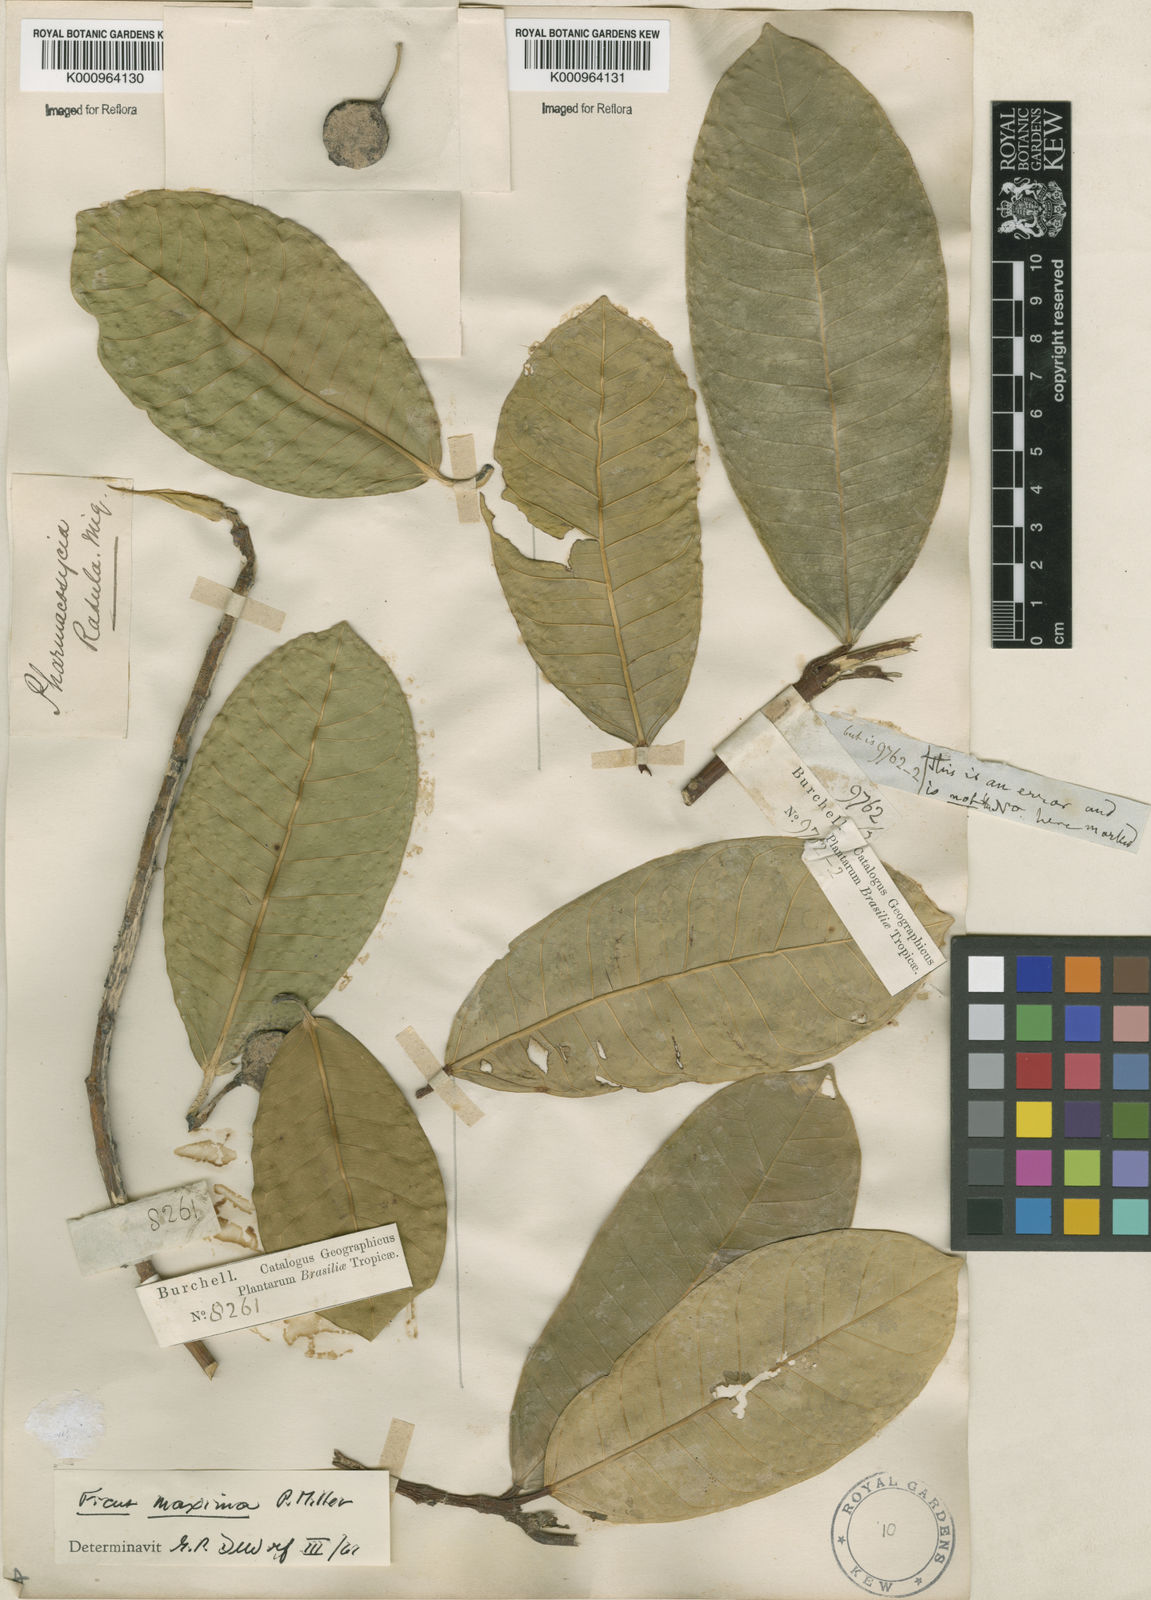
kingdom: Plantae
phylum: Tracheophyta
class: Magnoliopsida
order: Rosales
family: Moraceae
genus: Ficus
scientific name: Ficus maxima
